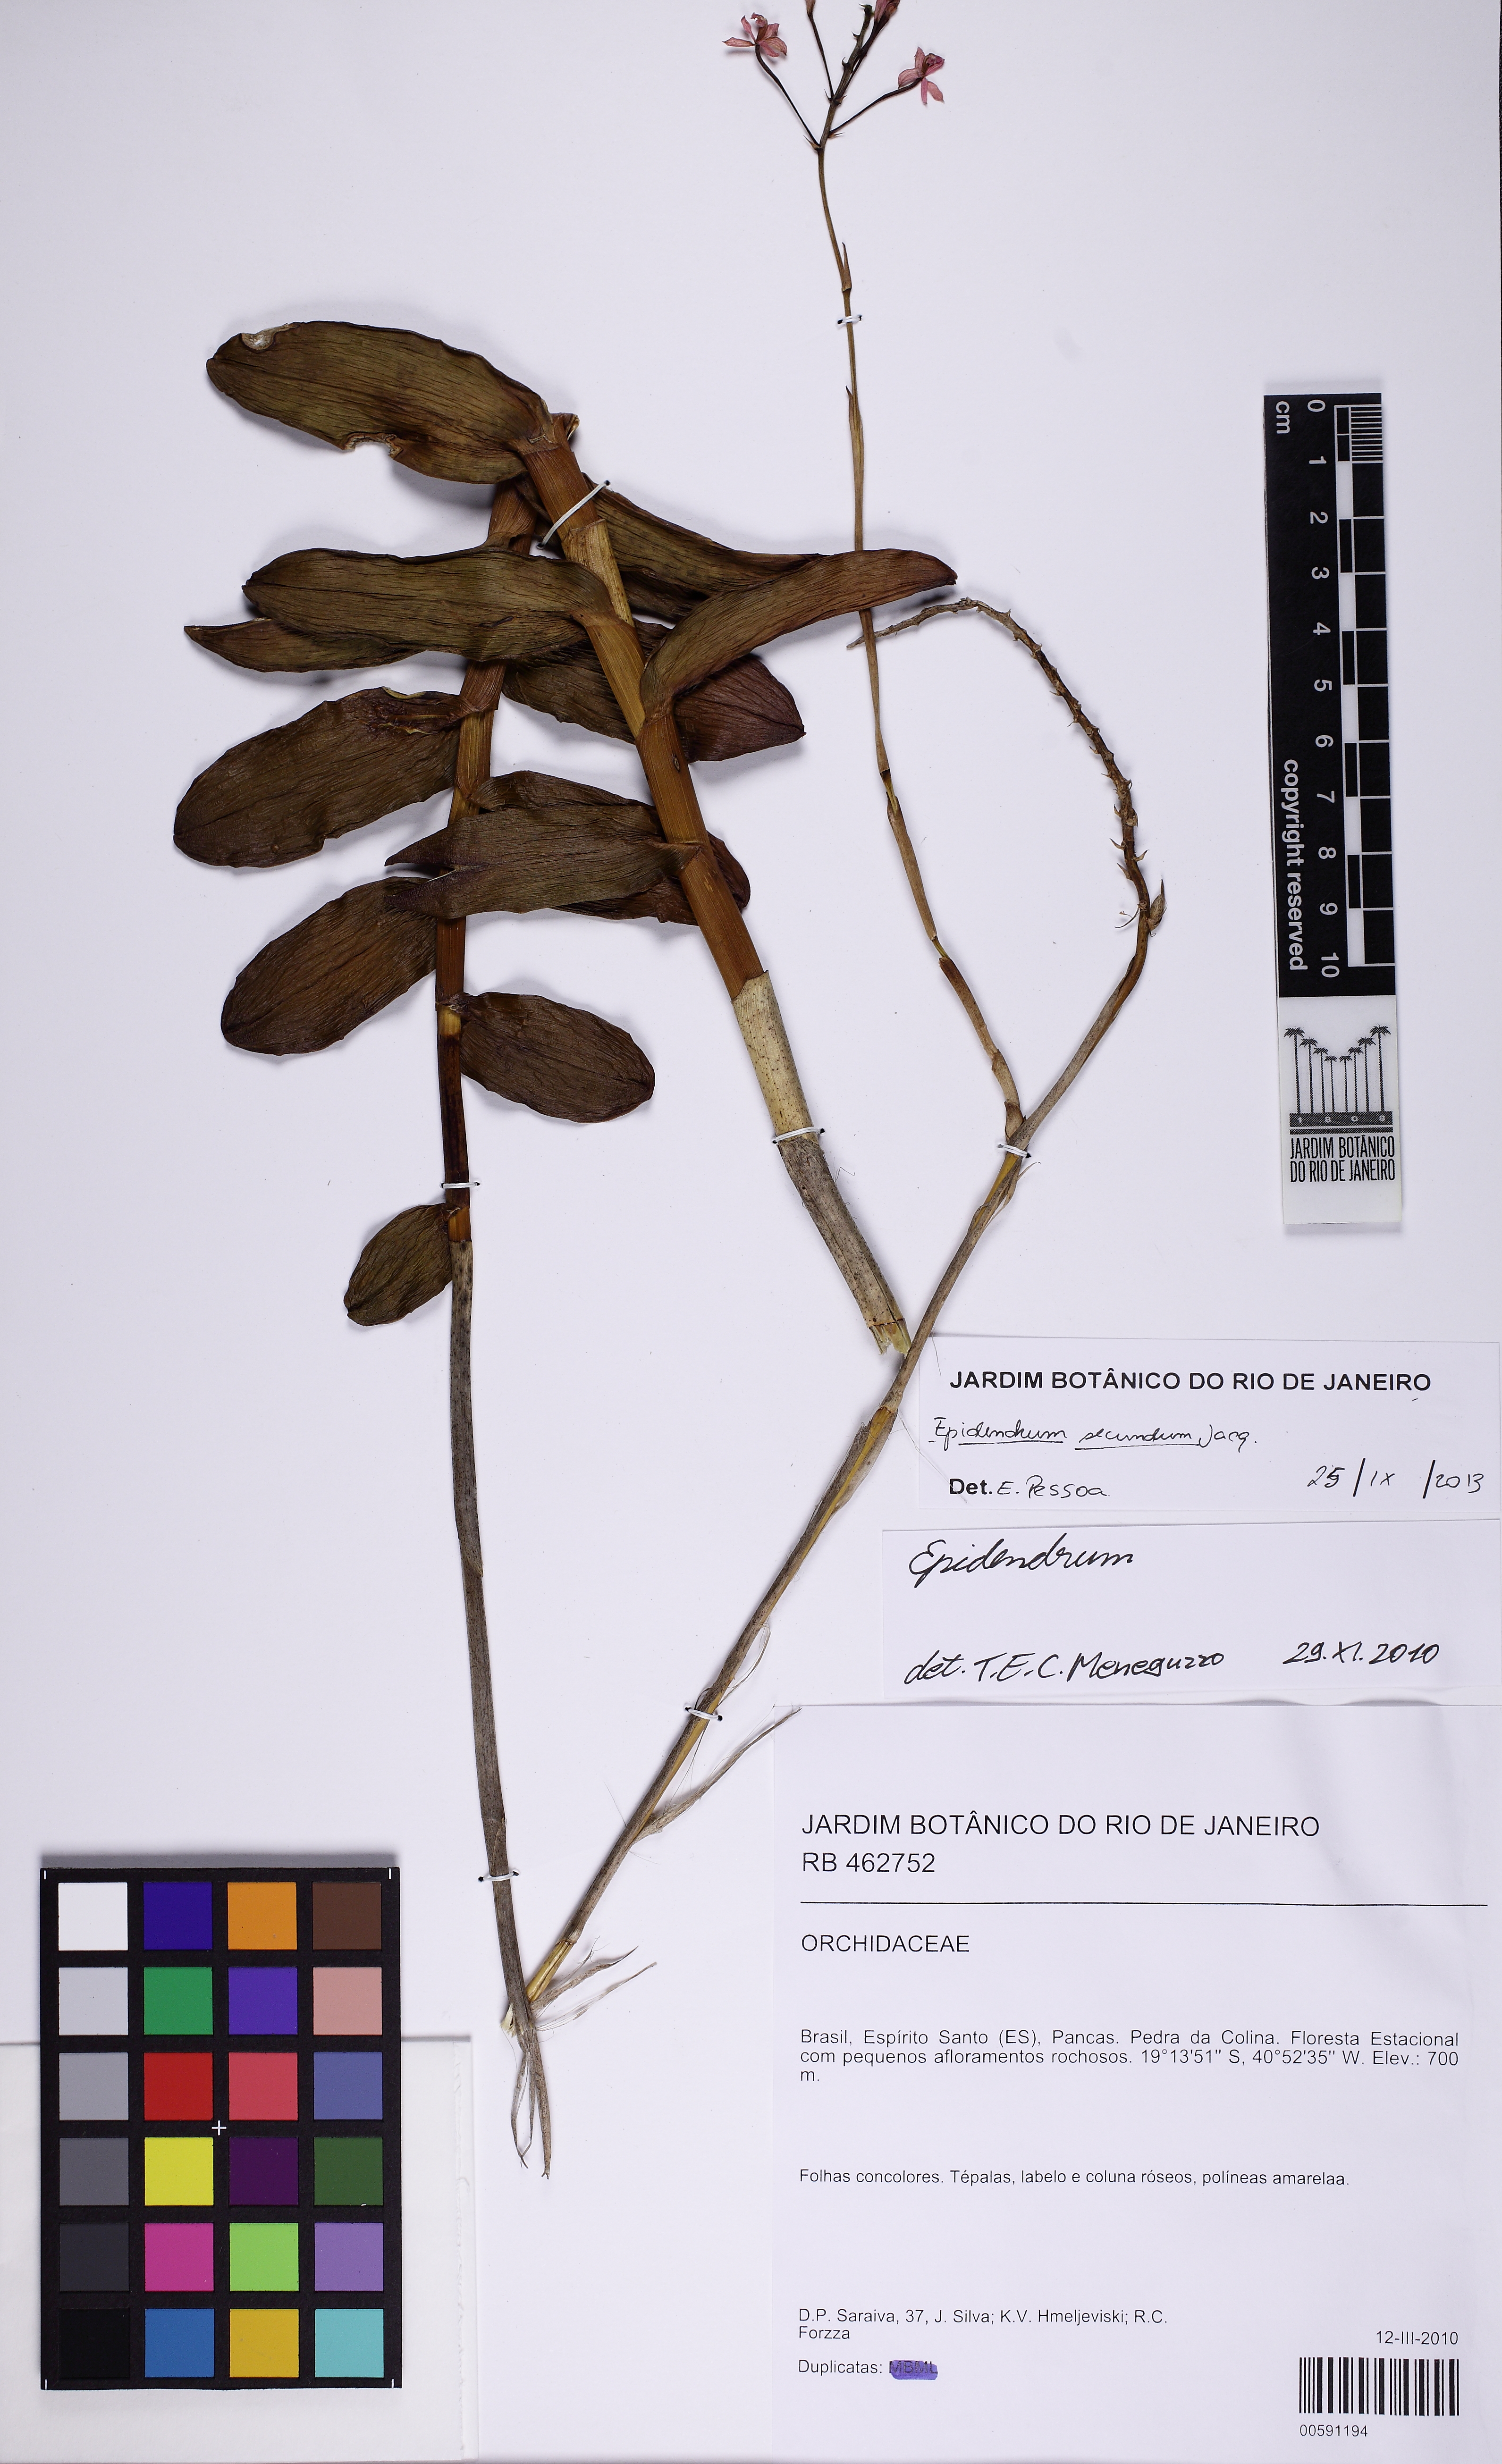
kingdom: Plantae
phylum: Tracheophyta
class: Liliopsida
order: Asparagales
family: Orchidaceae
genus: Epidendrum
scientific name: Epidendrum secundum
